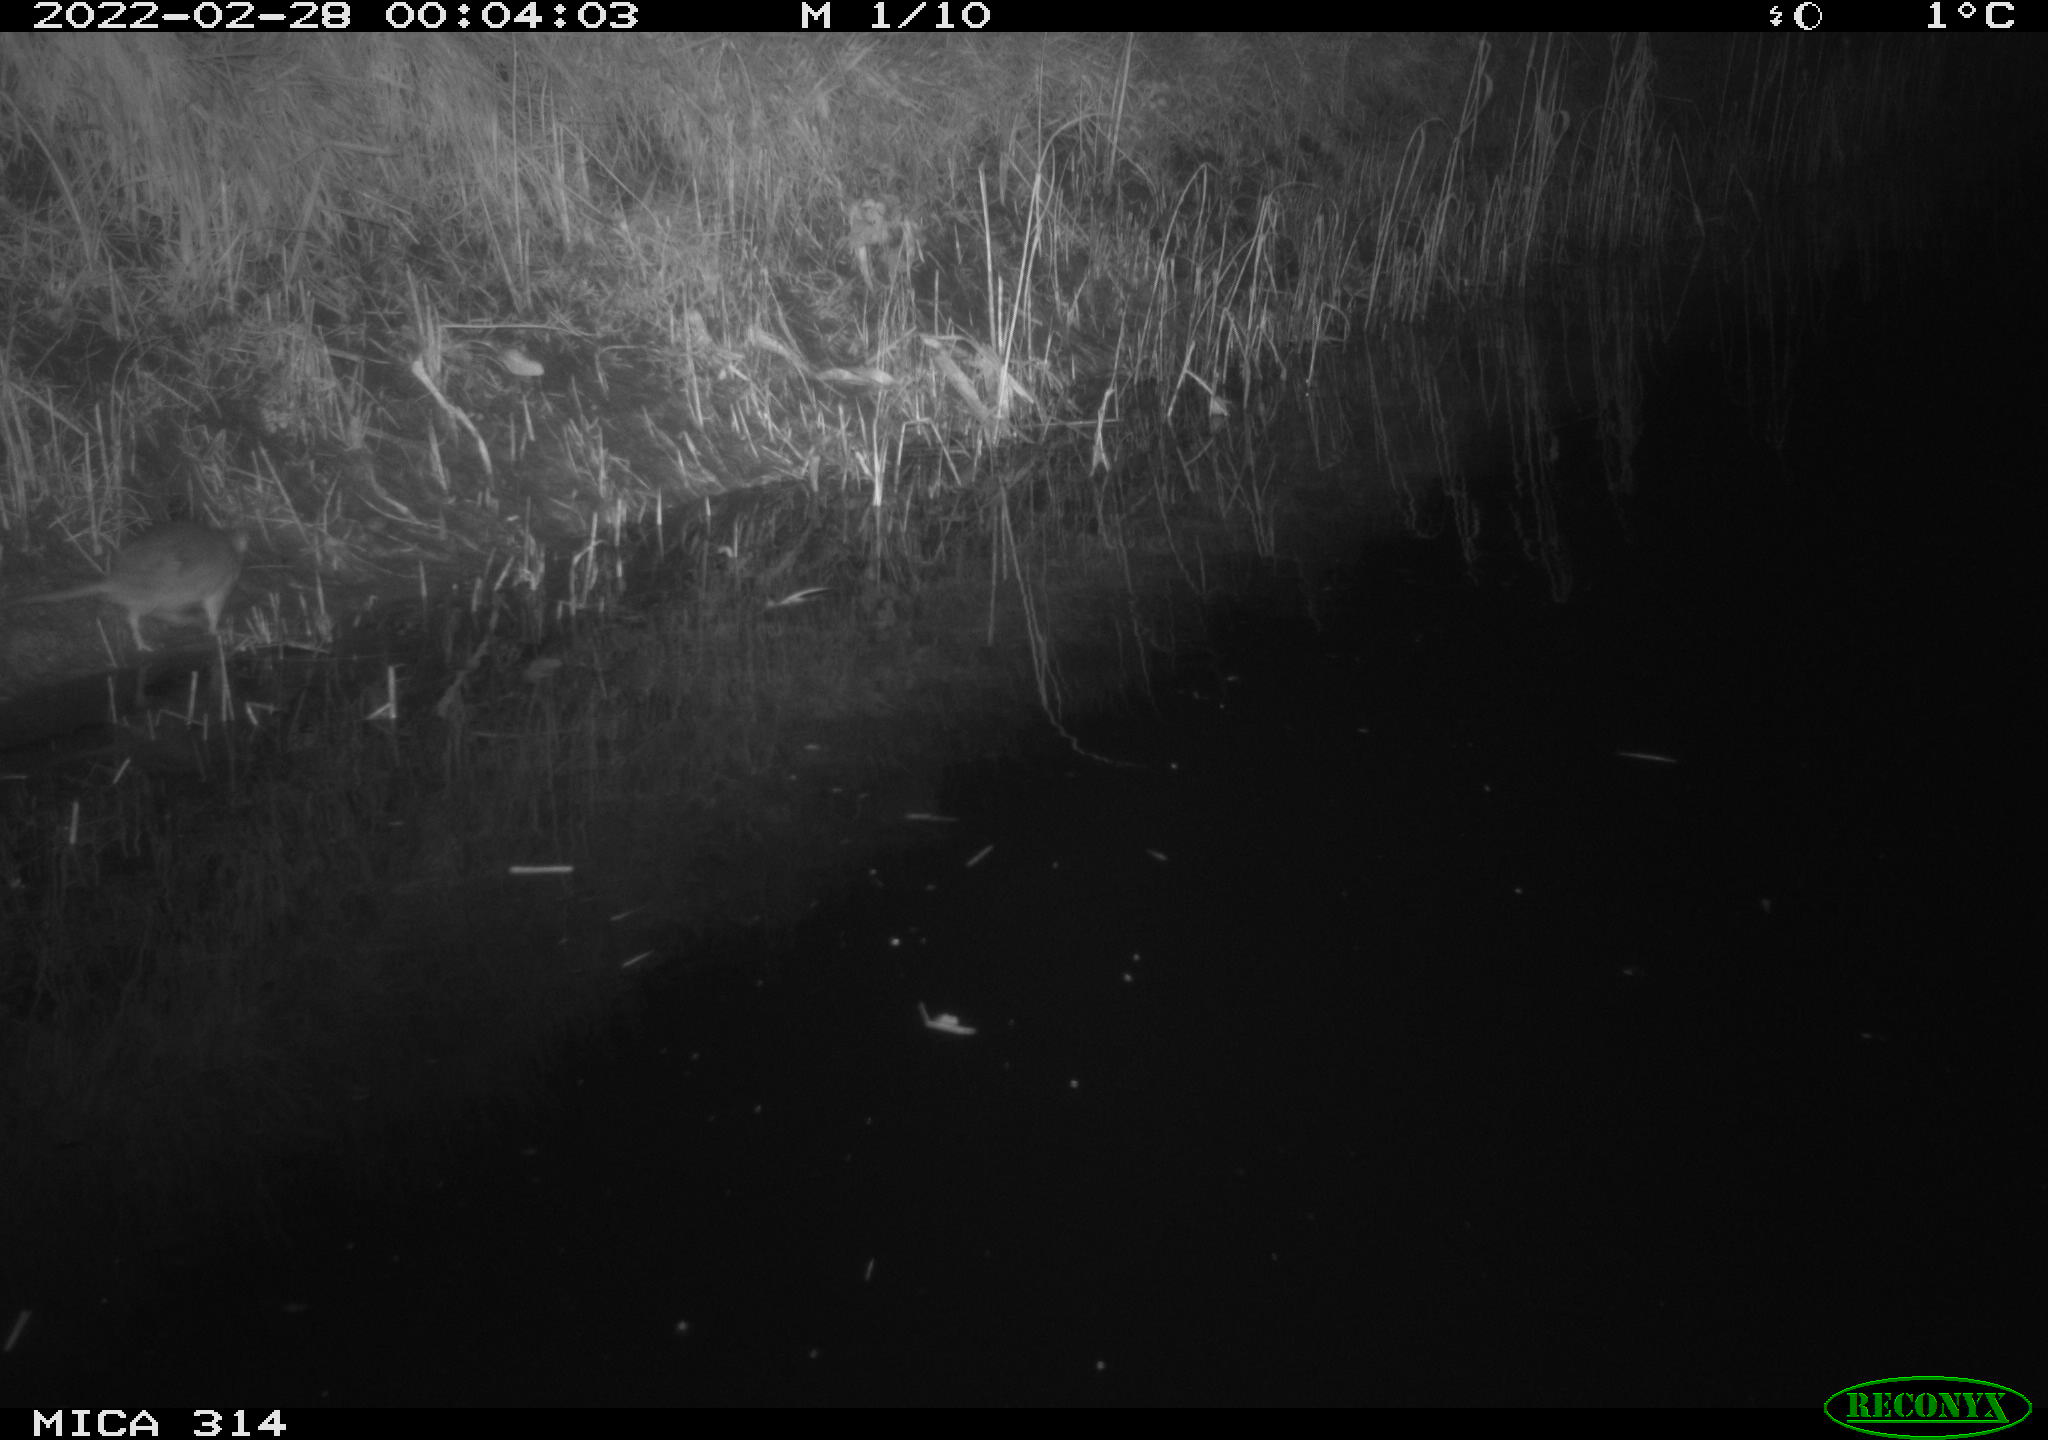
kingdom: Animalia
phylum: Chordata
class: Mammalia
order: Rodentia
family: Muridae
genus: Rattus
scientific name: Rattus norvegicus
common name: Brown rat
